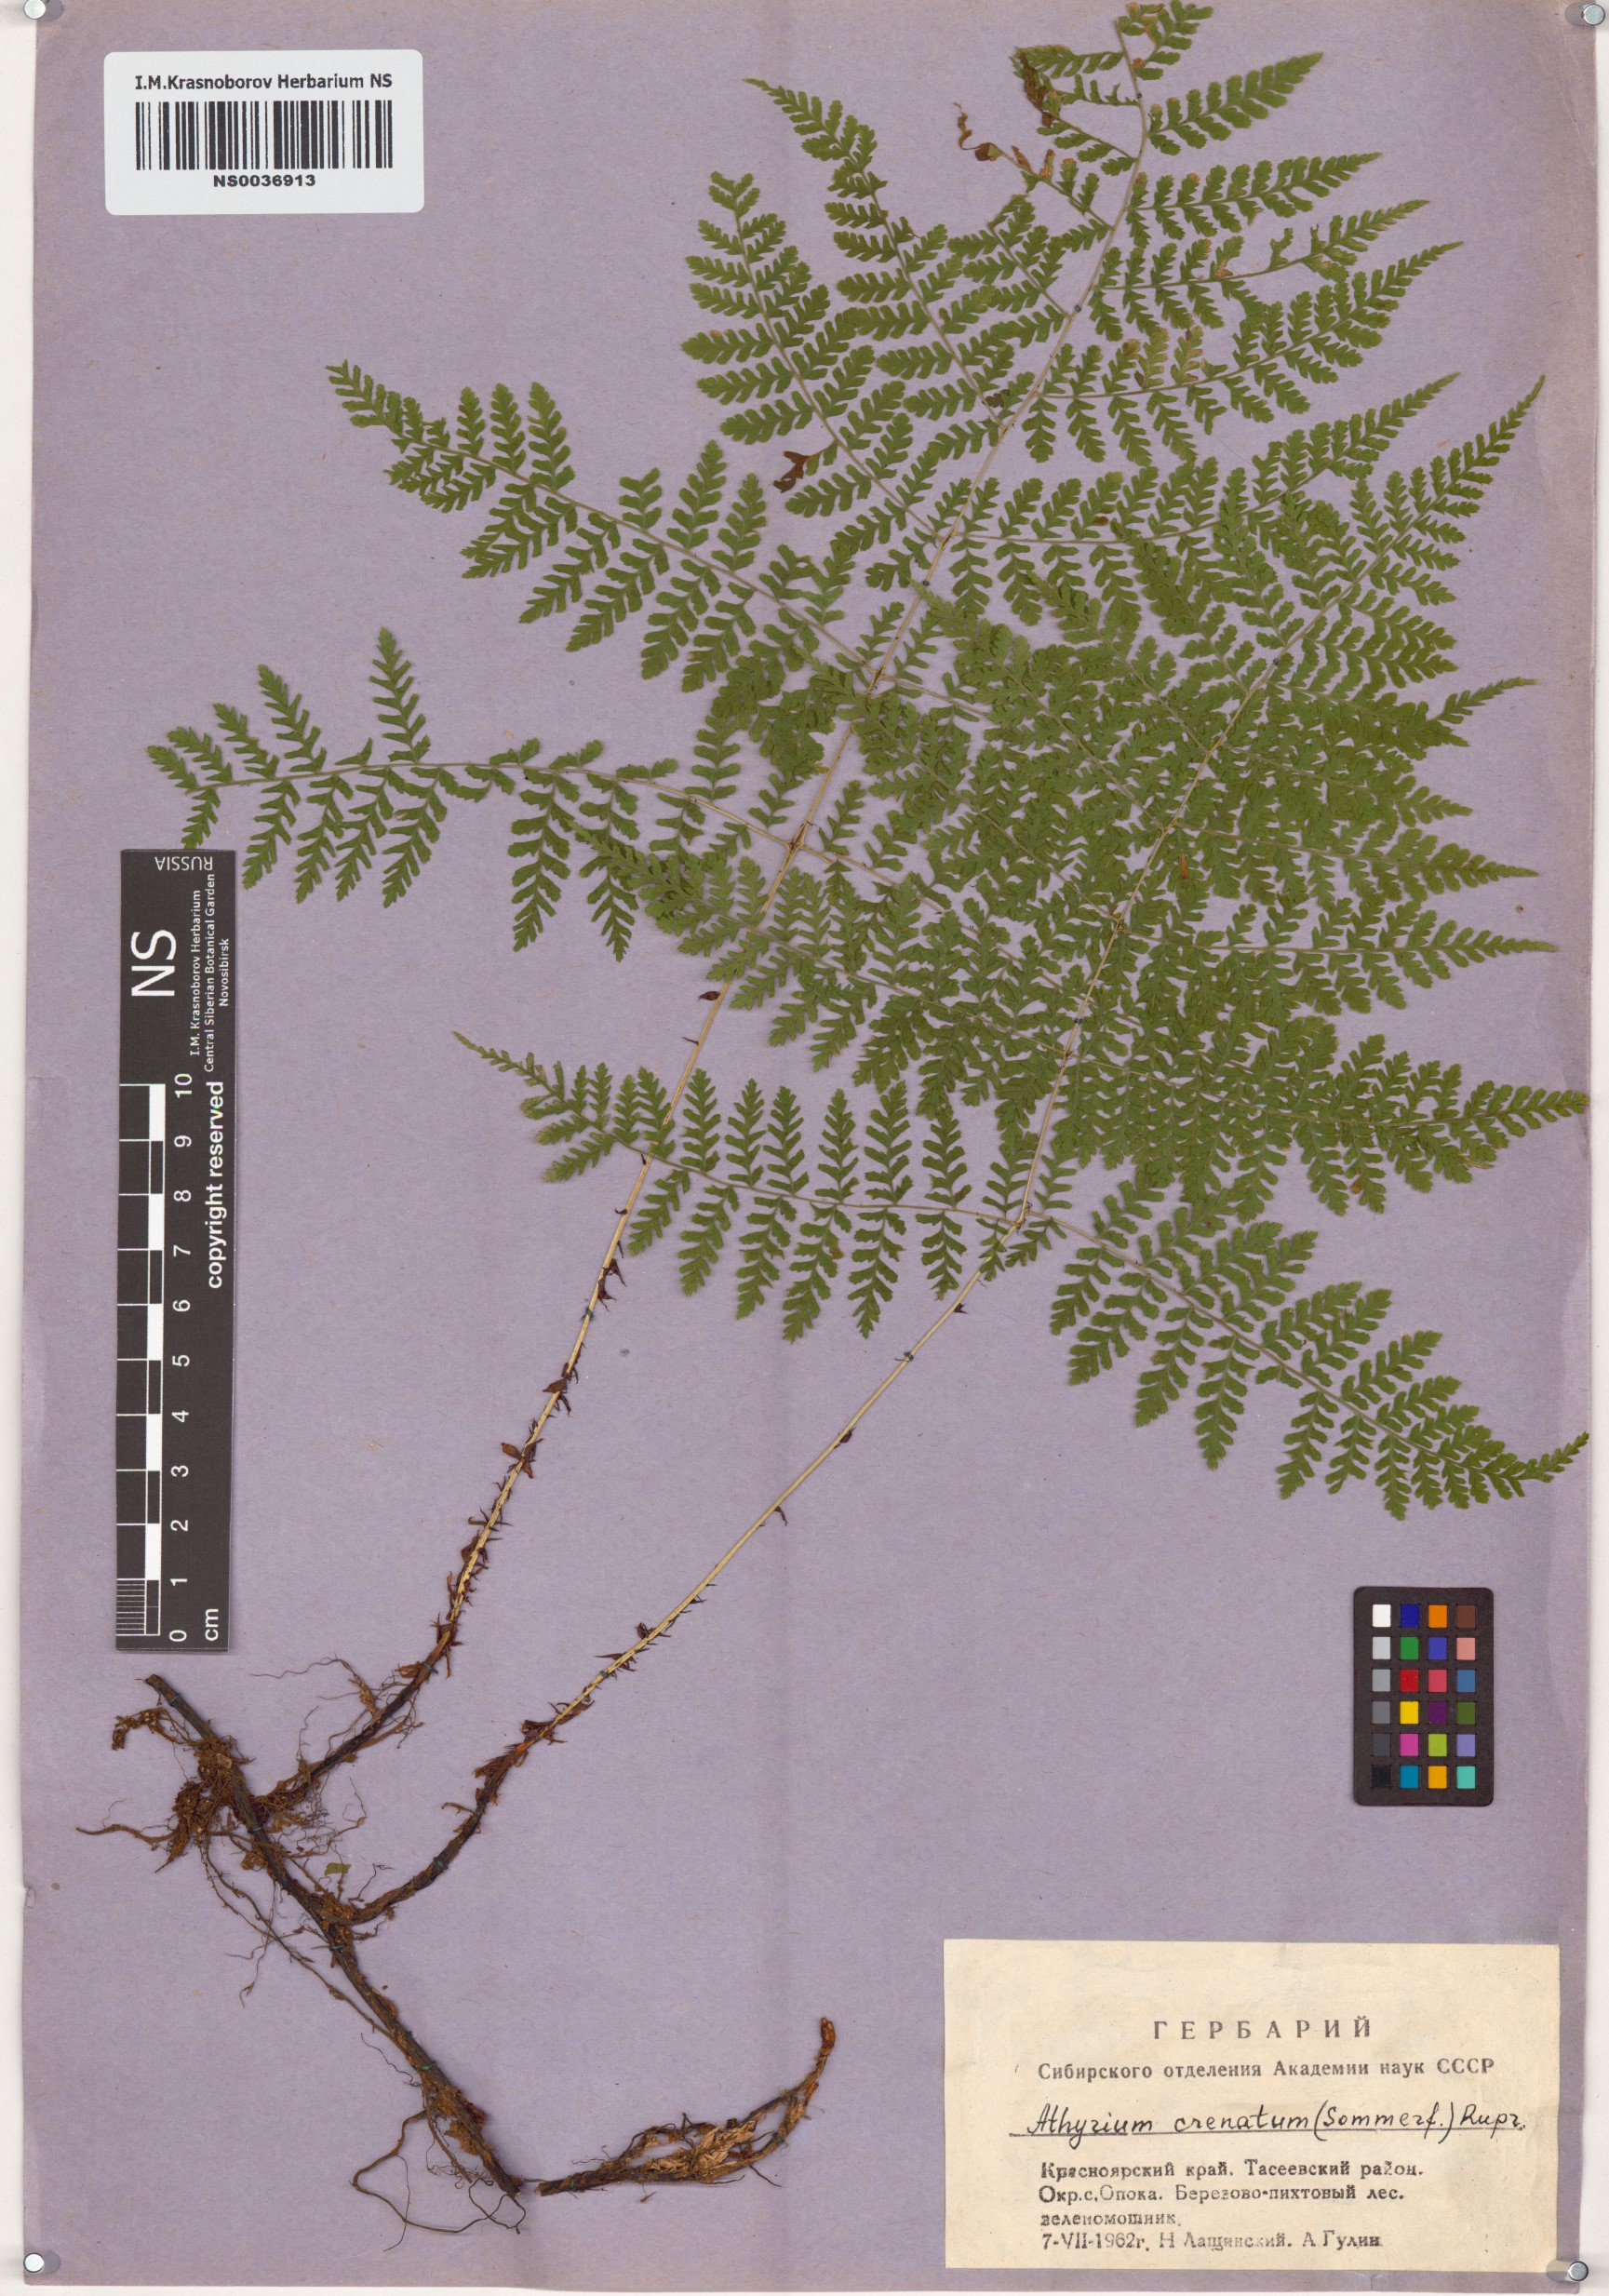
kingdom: Plantae
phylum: Tracheophyta
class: Polypodiopsida
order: Polypodiales
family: Athyriaceae
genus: Diplazium
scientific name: Diplazium sibiricum
